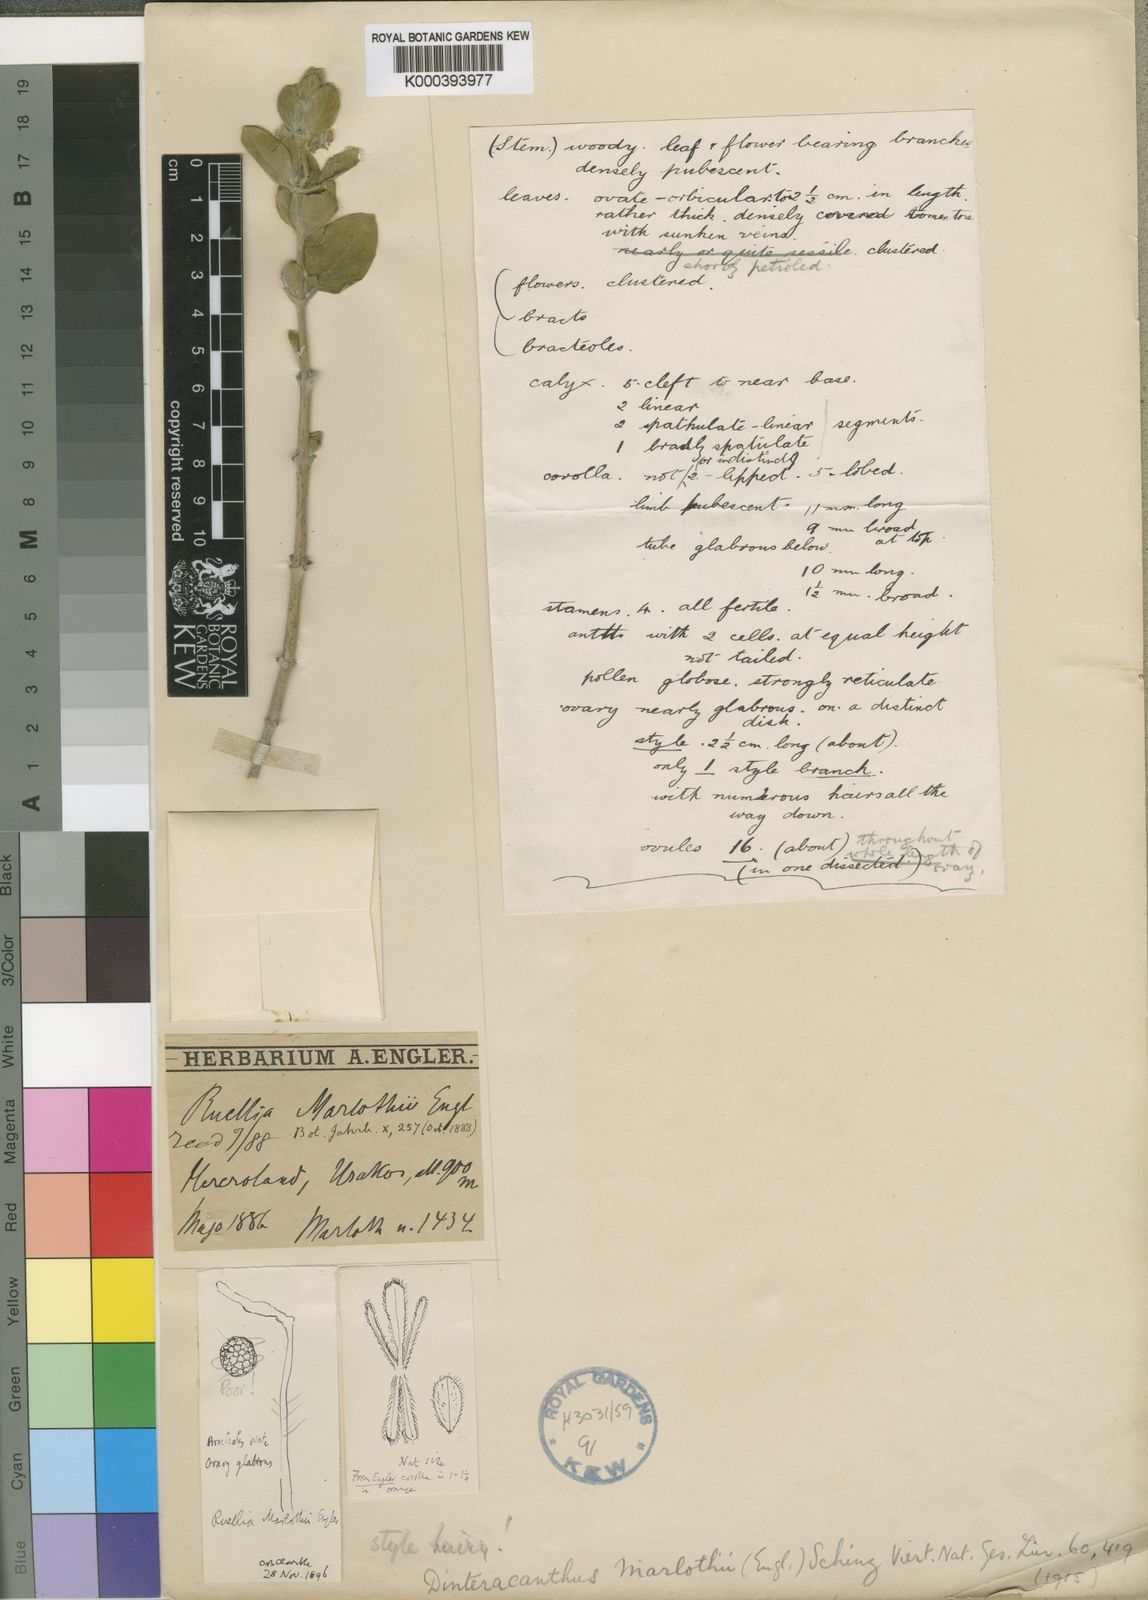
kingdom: Plantae
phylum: Tracheophyta
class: Magnoliopsida
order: Lamiales
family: Acanthaceae
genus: Dinteracanthus
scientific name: Dinteracanthus diversifolius
